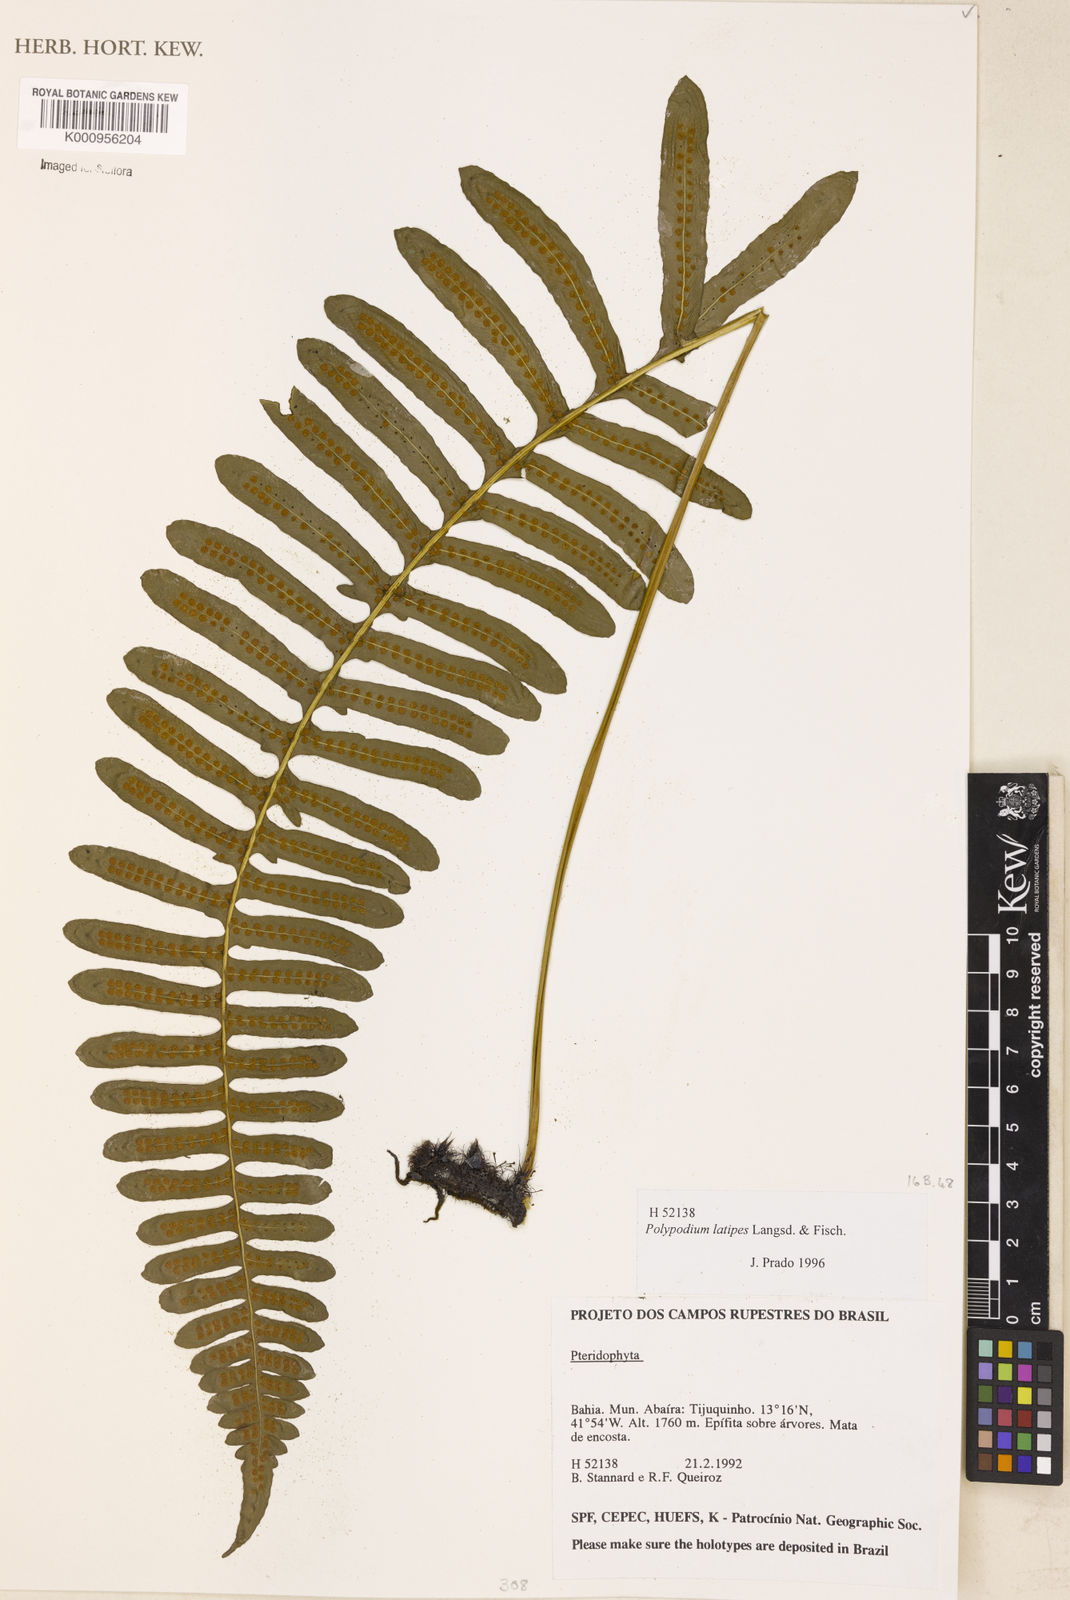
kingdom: Plantae
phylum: Tracheophyta
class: Polypodiopsida
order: Polypodiales
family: Polypodiaceae
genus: Serpocaulon
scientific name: Serpocaulon latipes
